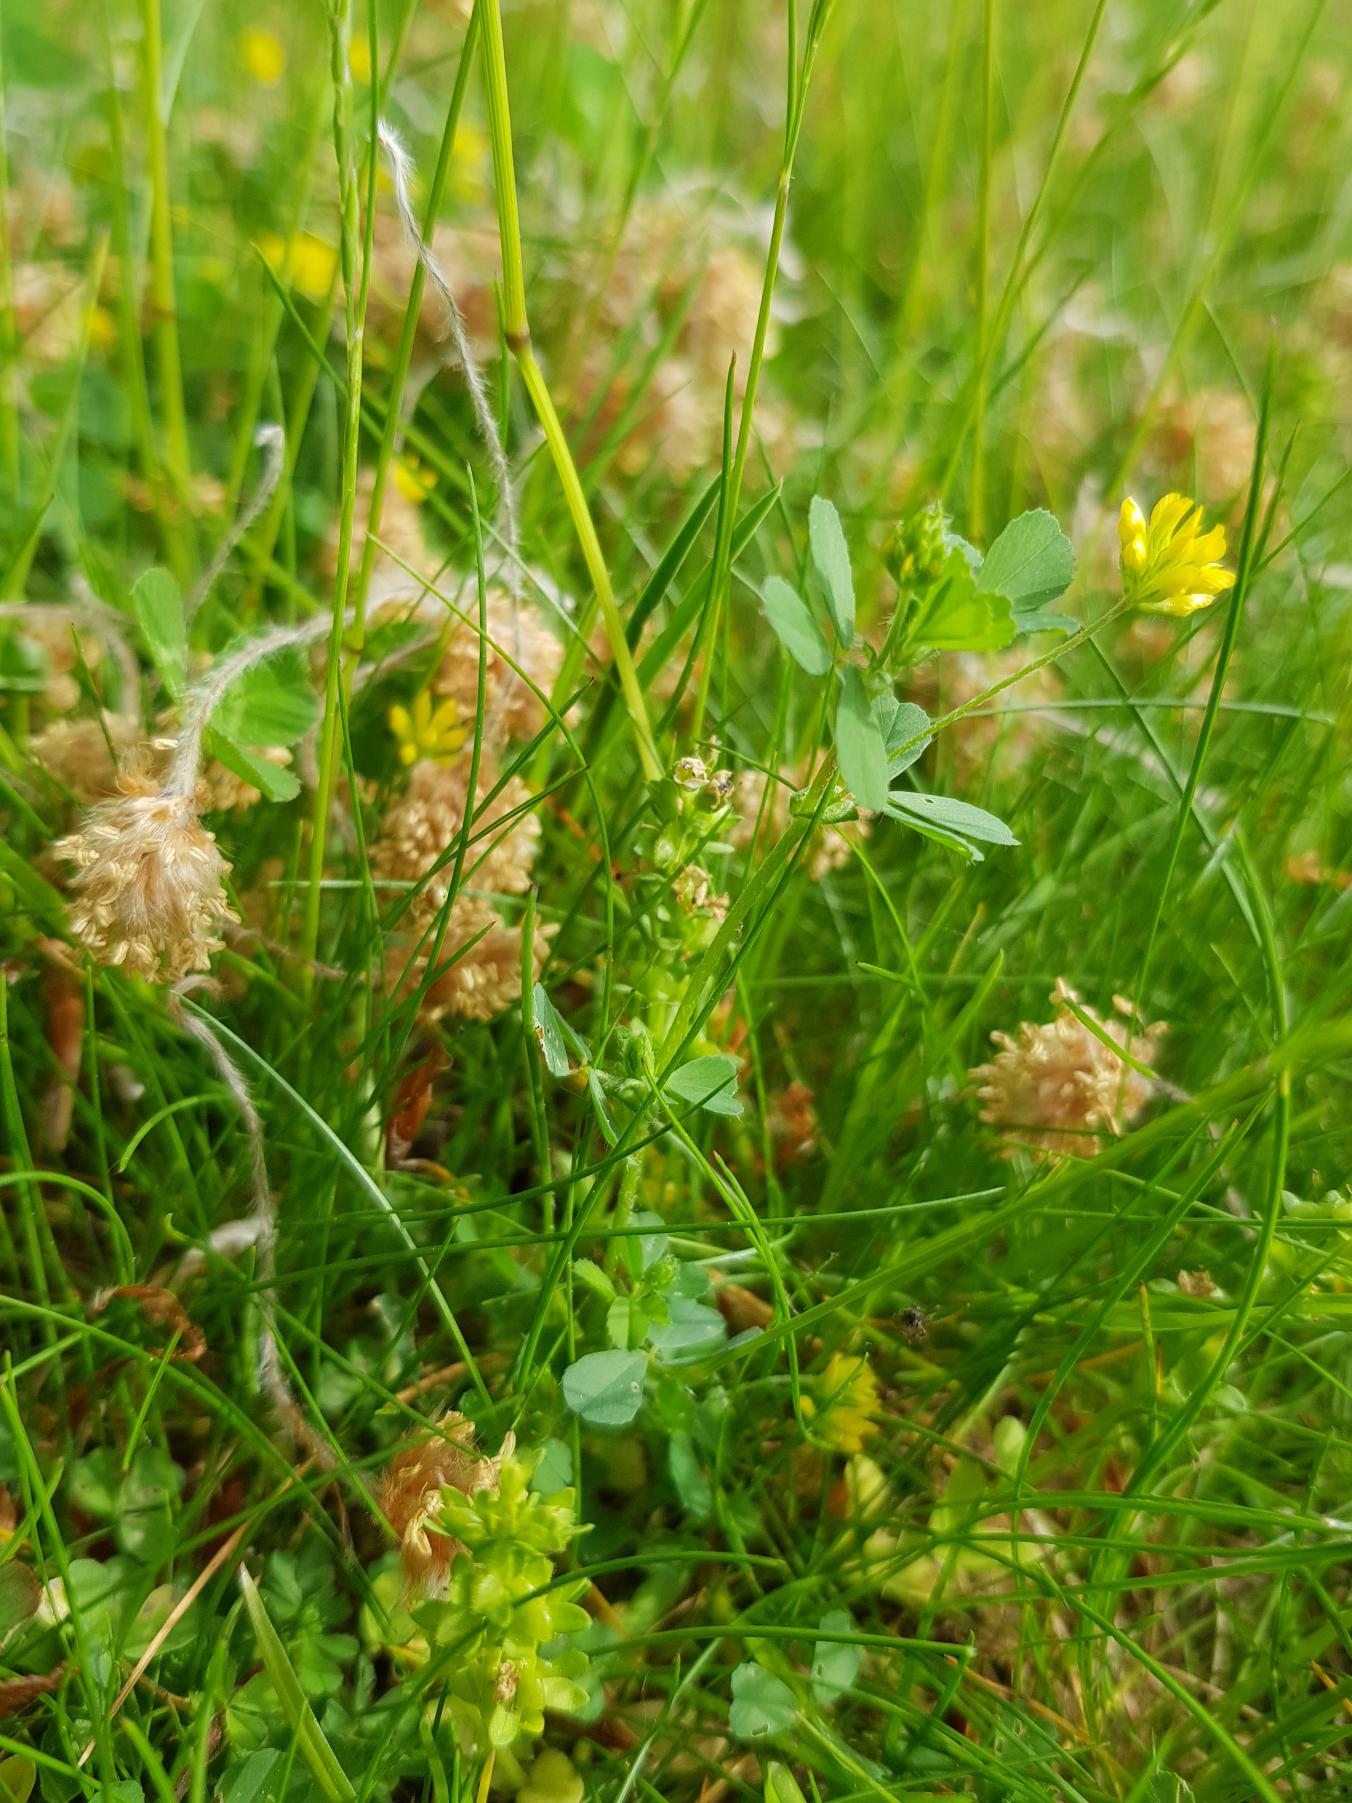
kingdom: Plantae
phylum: Tracheophyta
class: Magnoliopsida
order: Fabales
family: Fabaceae
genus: Trifolium
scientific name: Trifolium dubium
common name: Fin kløver
